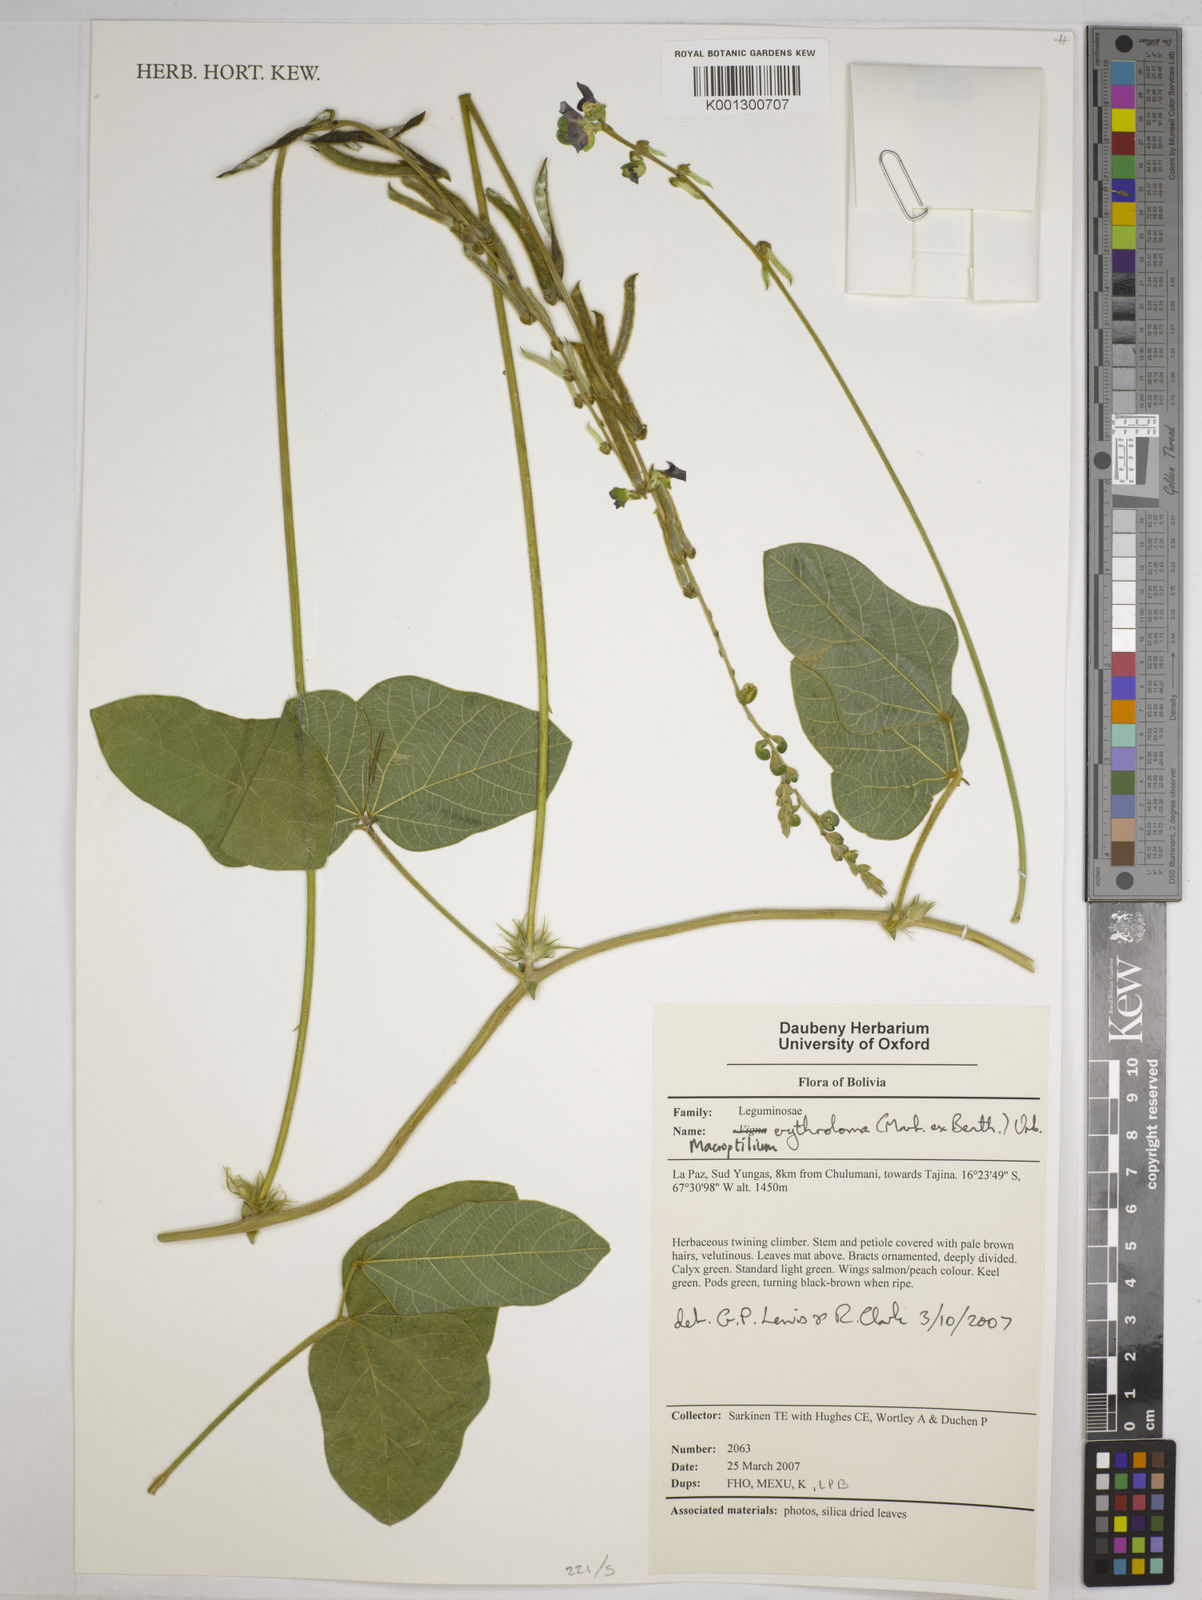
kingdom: Plantae
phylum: Tracheophyta
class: Magnoliopsida
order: Fabales
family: Fabaceae
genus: Macroptilium
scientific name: Macroptilium erythroloma
